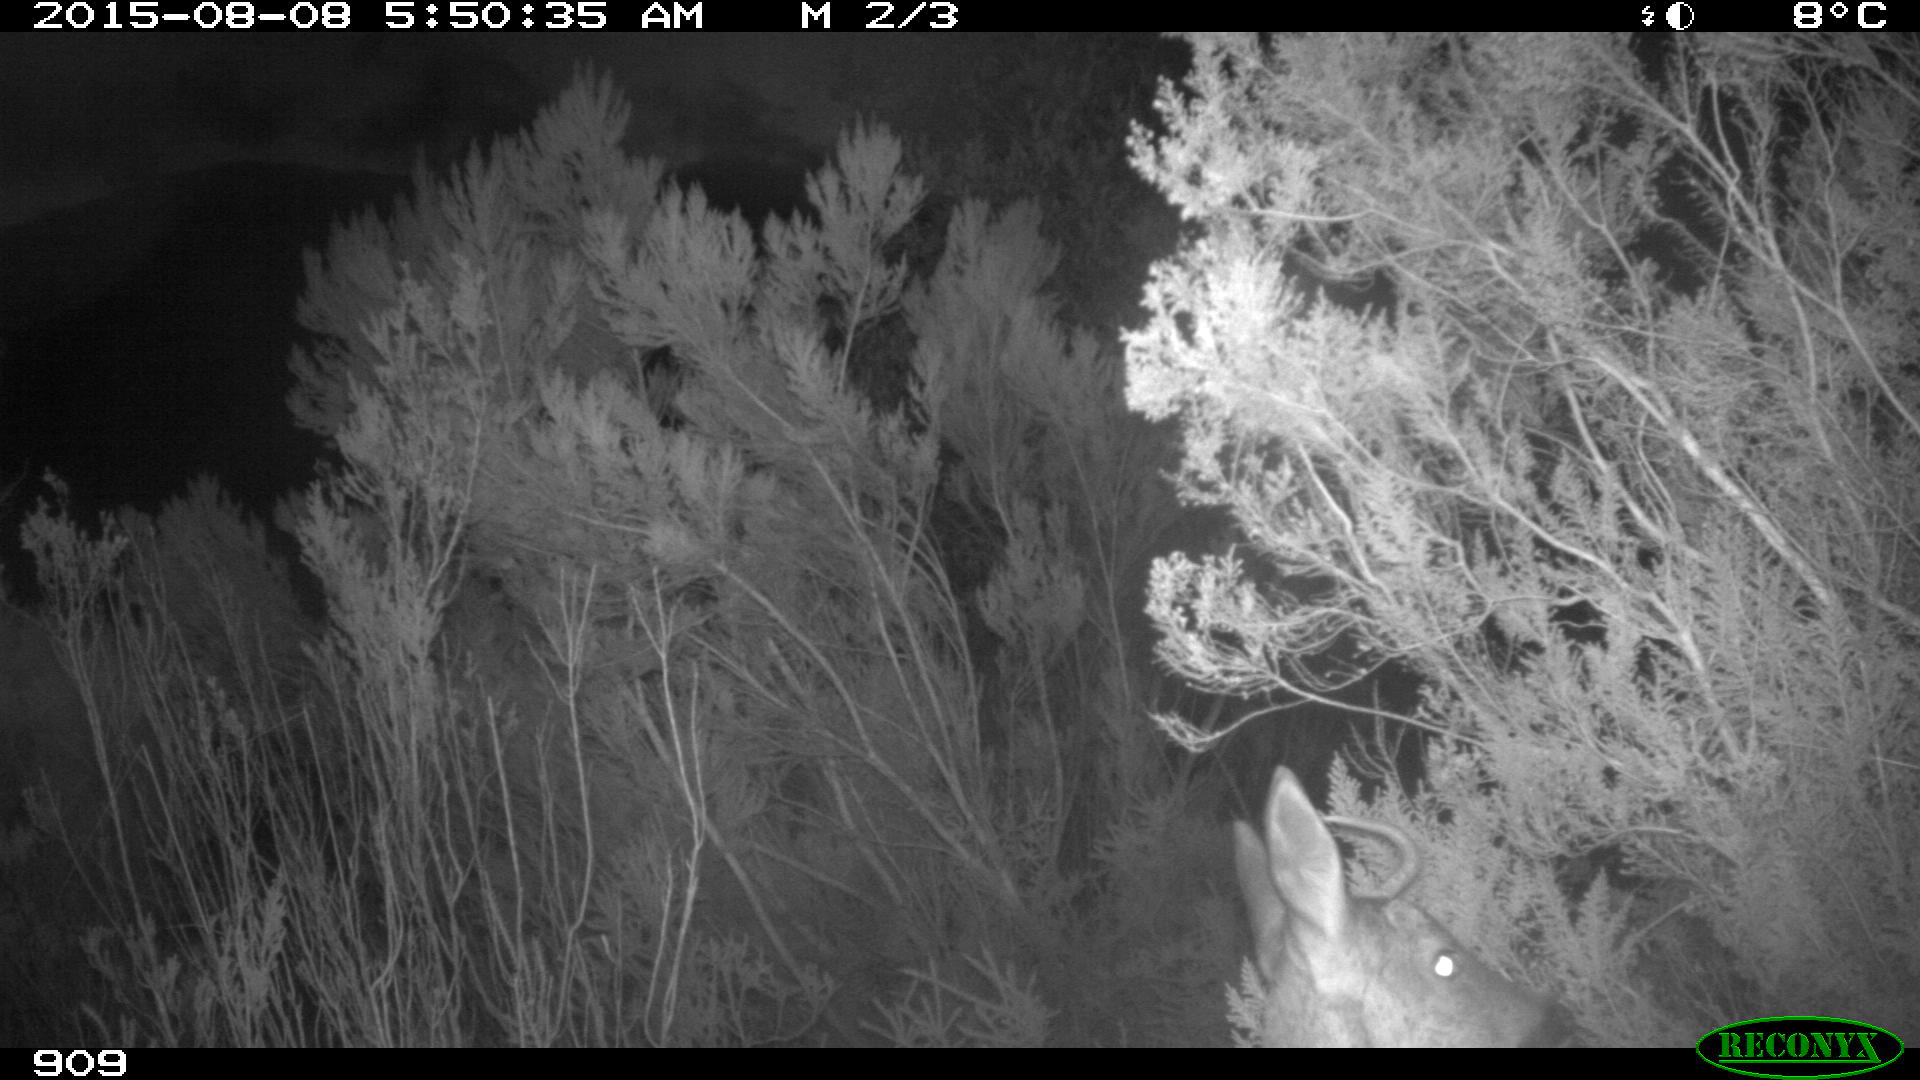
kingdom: Animalia
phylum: Chordata
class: Mammalia
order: Artiodactyla
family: Cervidae
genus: Capreolus
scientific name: Capreolus capreolus
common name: Western roe deer
